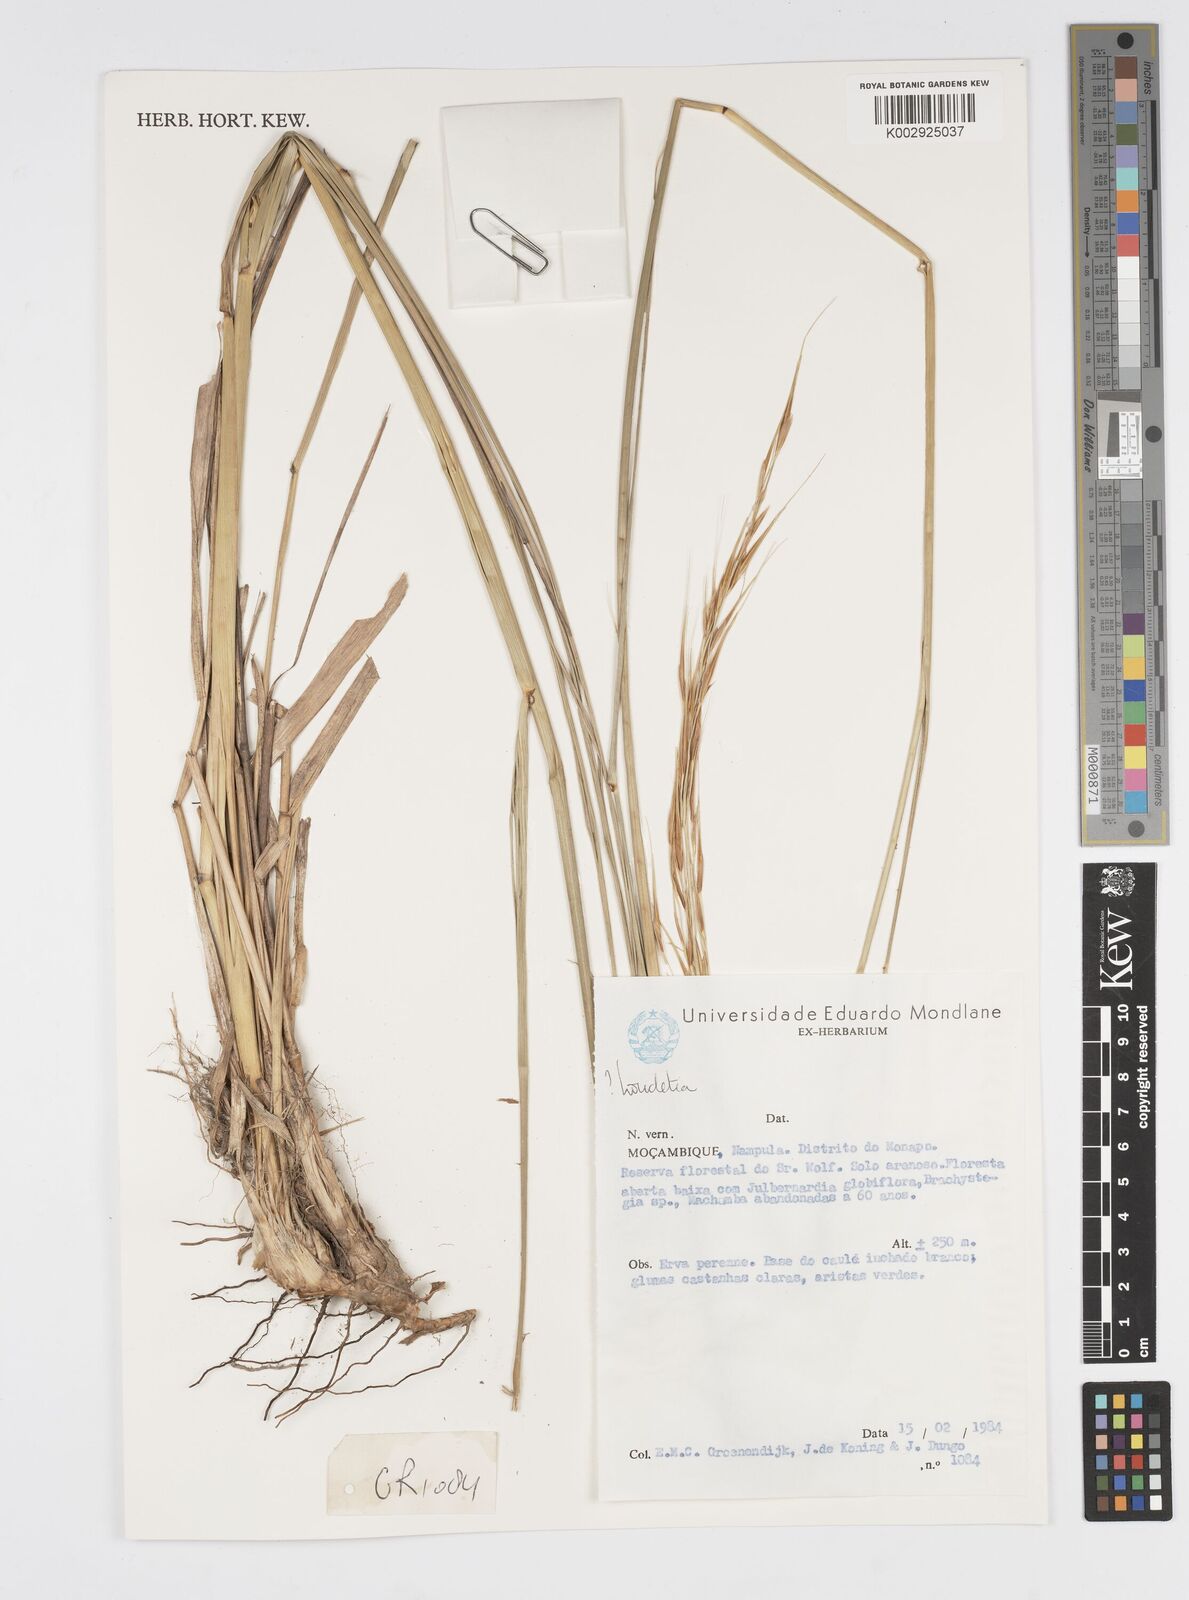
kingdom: Plantae
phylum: Tracheophyta
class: Liliopsida
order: Poales
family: Poaceae
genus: Loudetia
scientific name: Loudetia
